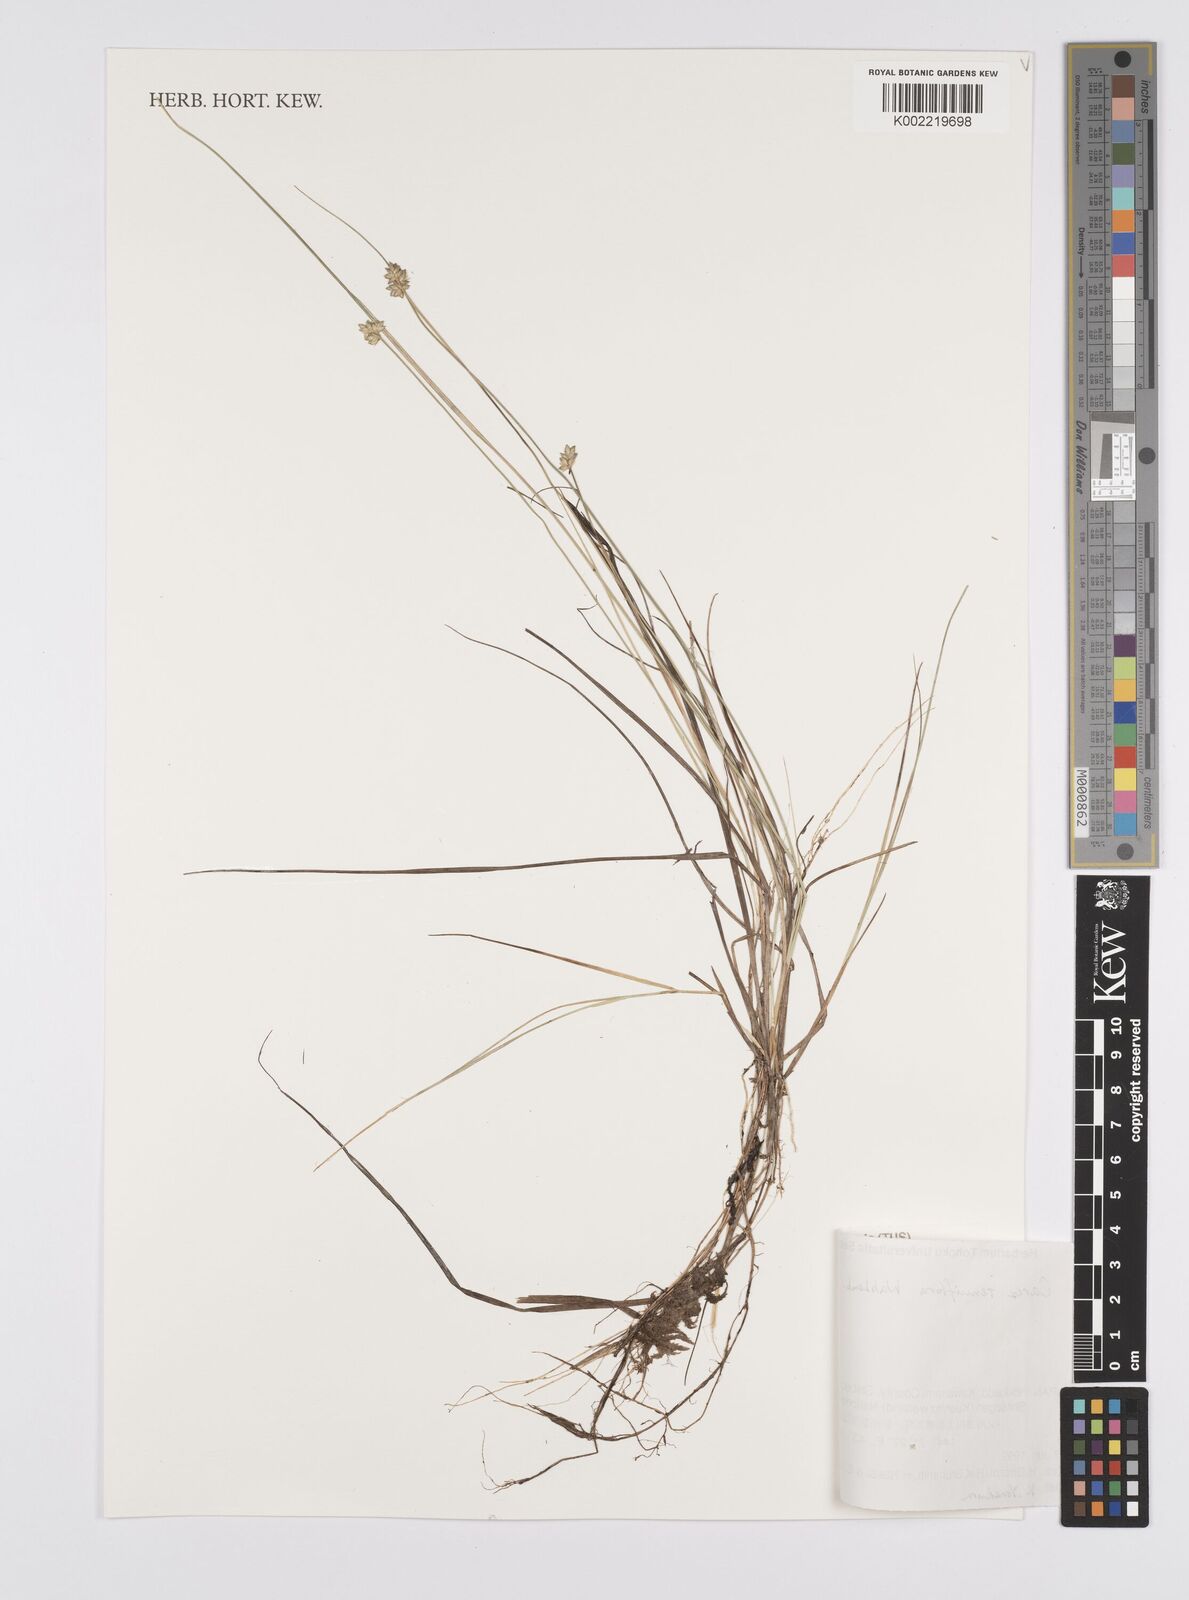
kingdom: Plantae
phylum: Tracheophyta
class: Liliopsida
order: Poales
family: Cyperaceae
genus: Carex
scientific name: Carex tenuiflora
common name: Sparse-flowered sedge
